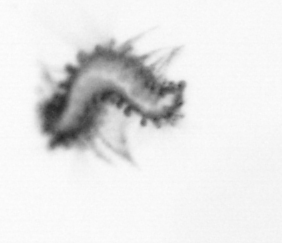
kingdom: Animalia
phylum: Annelida
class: Polychaeta
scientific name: Polychaeta
